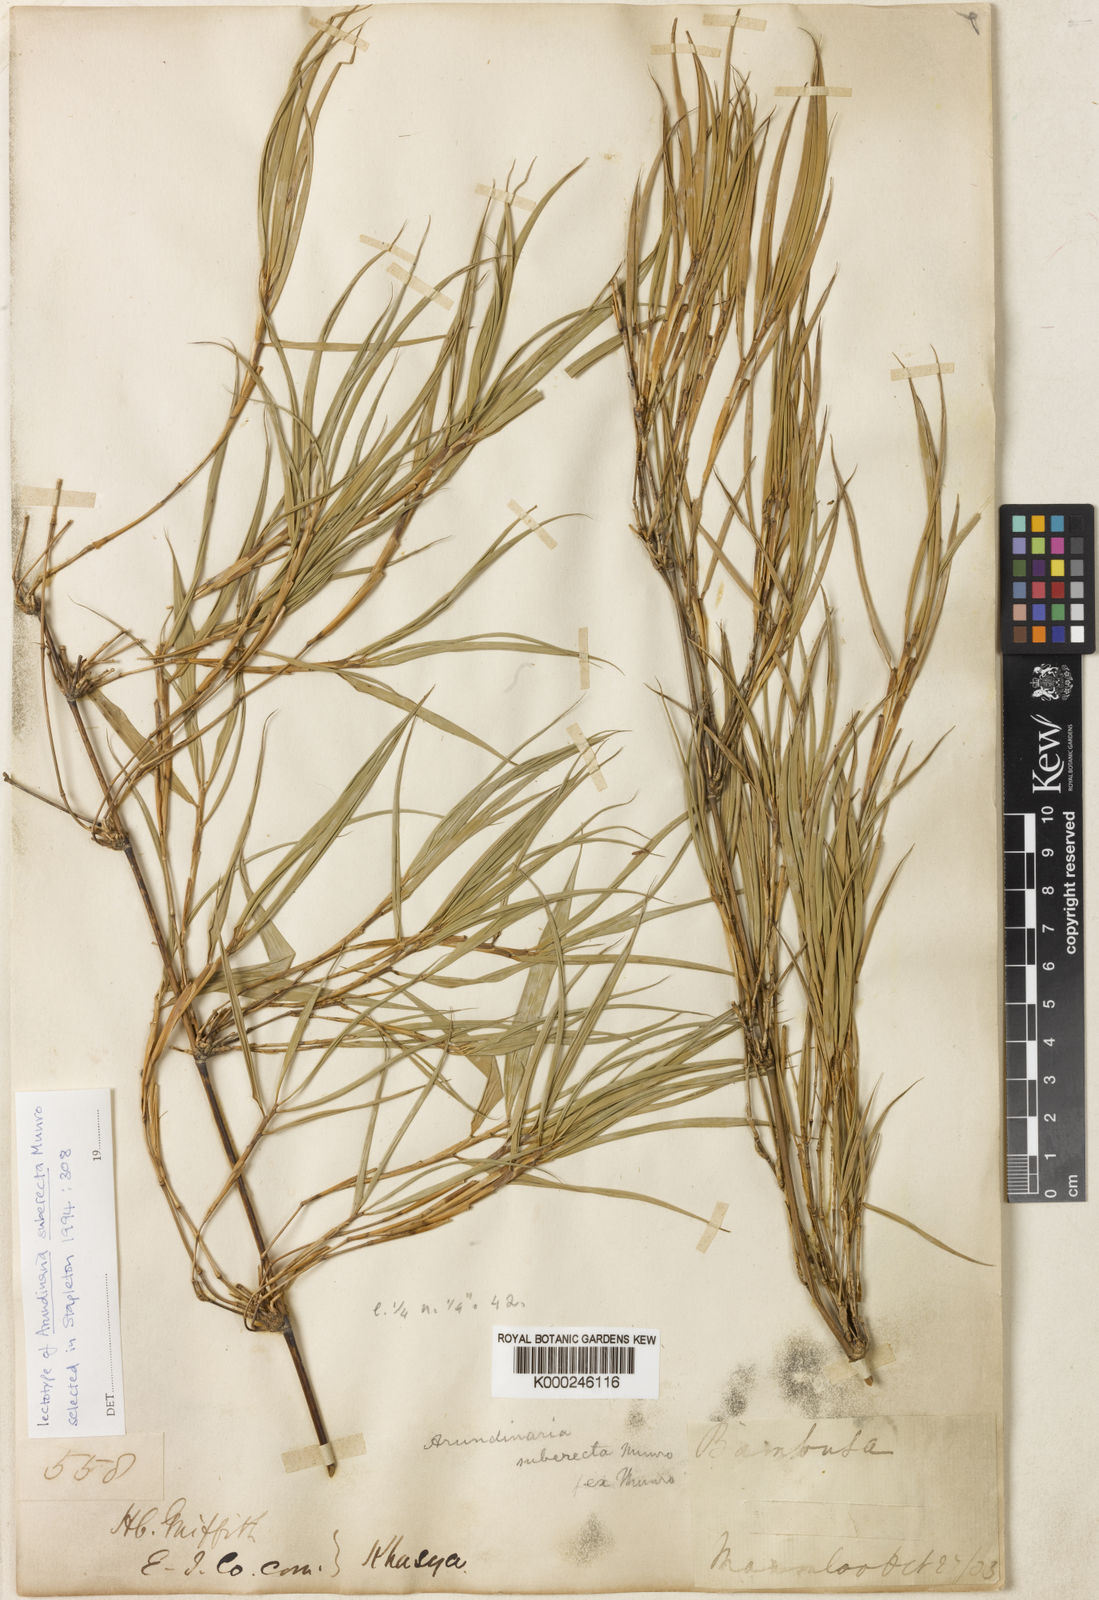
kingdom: Plantae
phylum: Tracheophyta
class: Liliopsida
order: Poales
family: Poaceae
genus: Drepanostachyum
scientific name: Drepanostachyum khasianum
